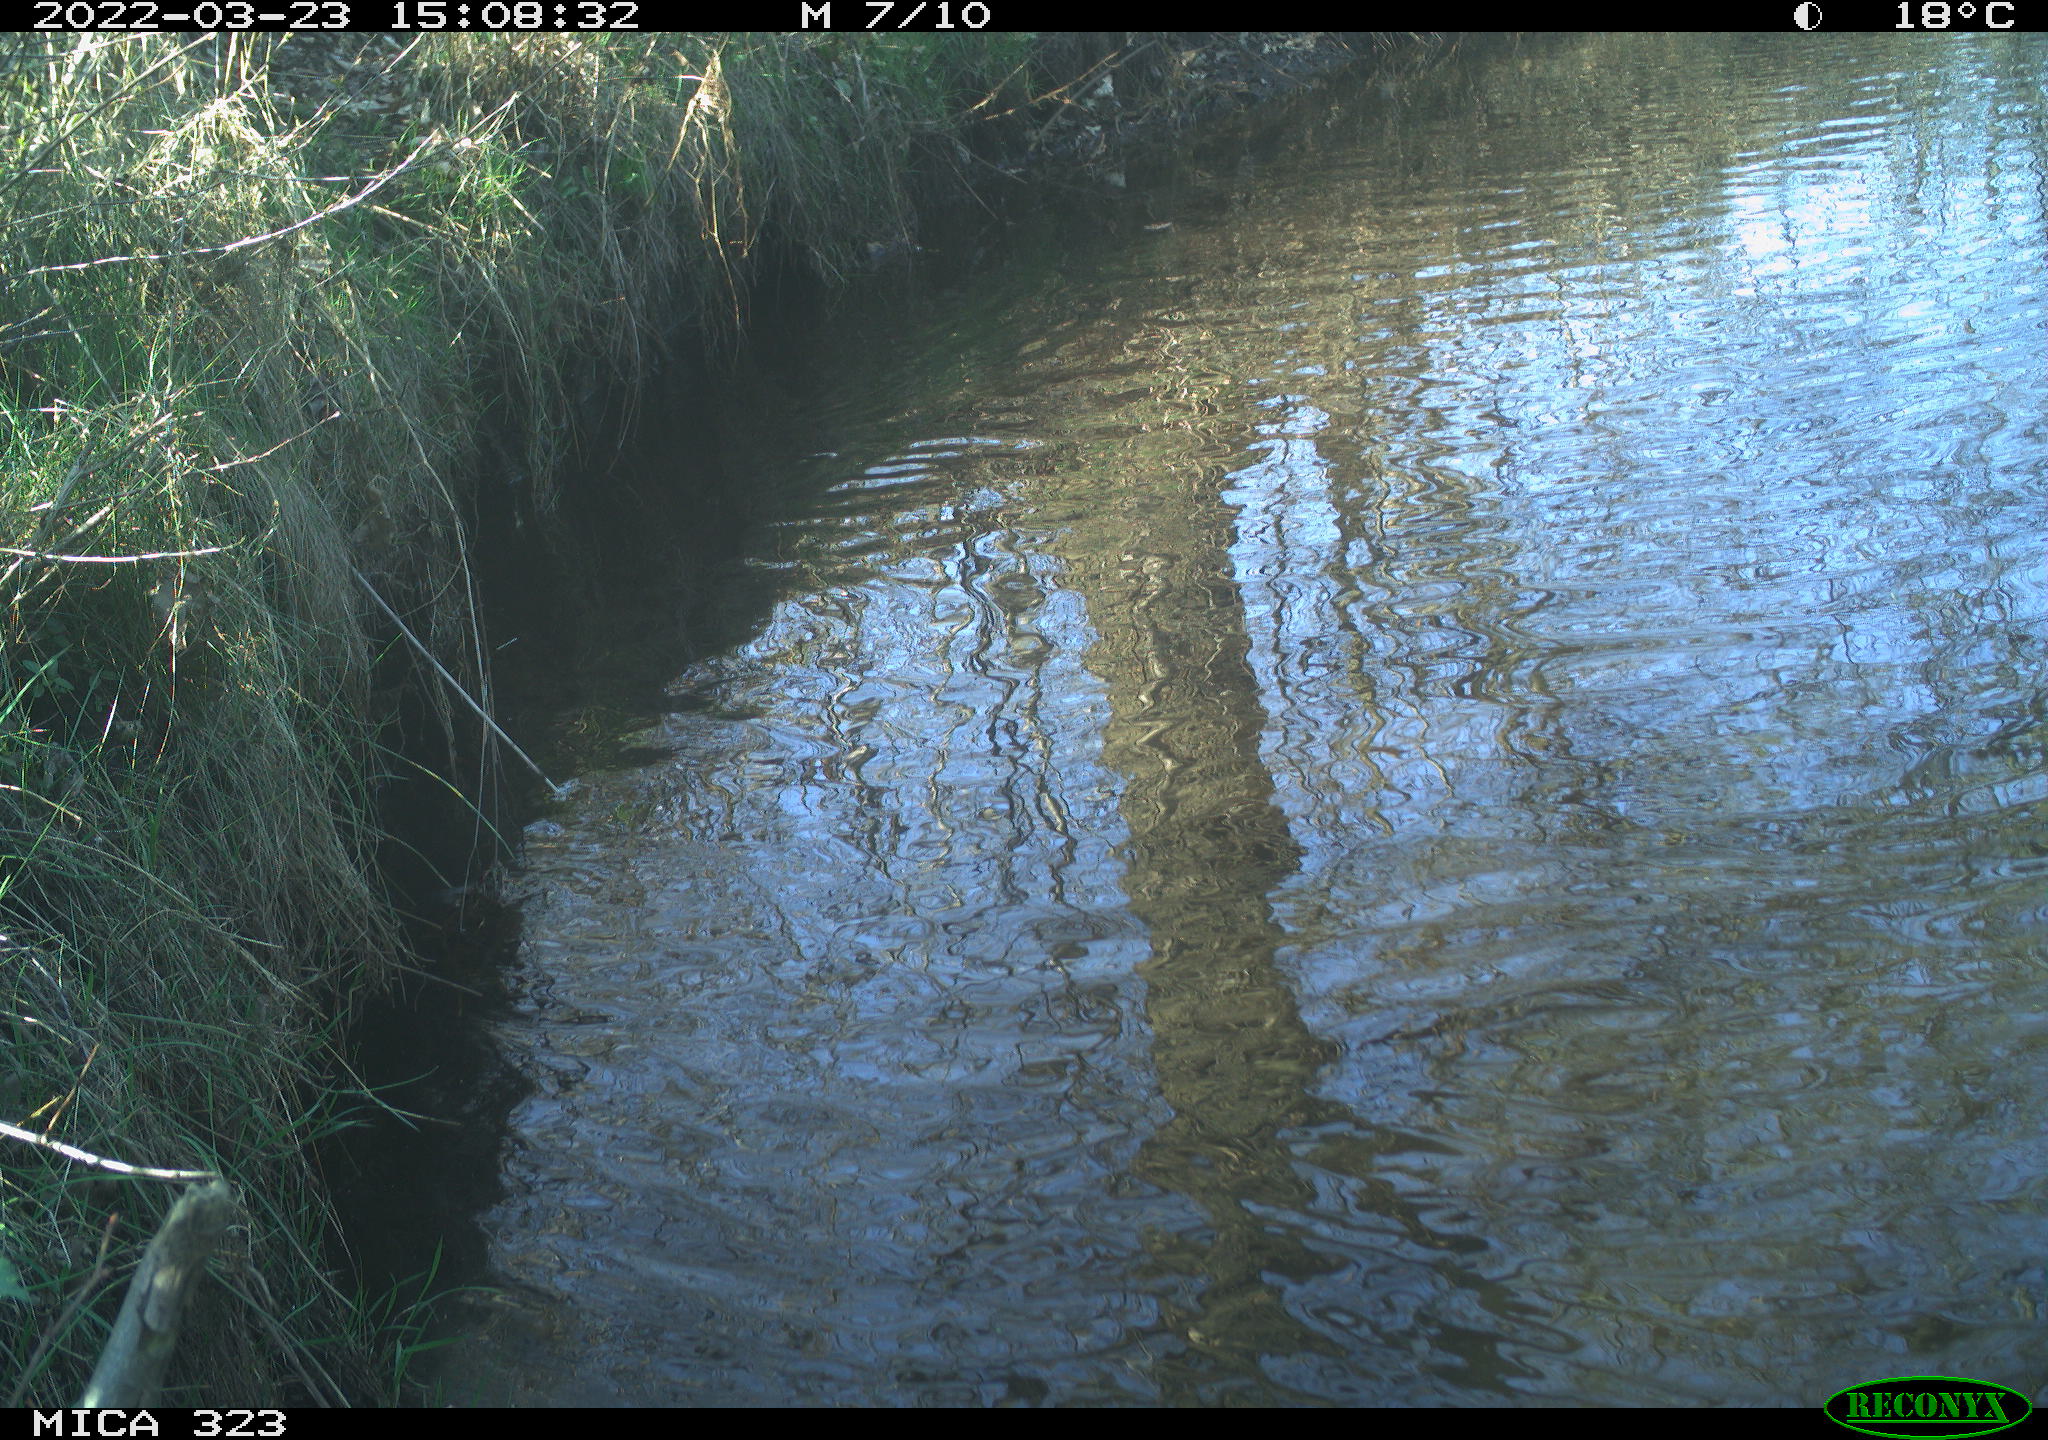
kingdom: Animalia
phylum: Chordata
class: Aves
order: Anseriformes
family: Anatidae
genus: Anas
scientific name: Anas
